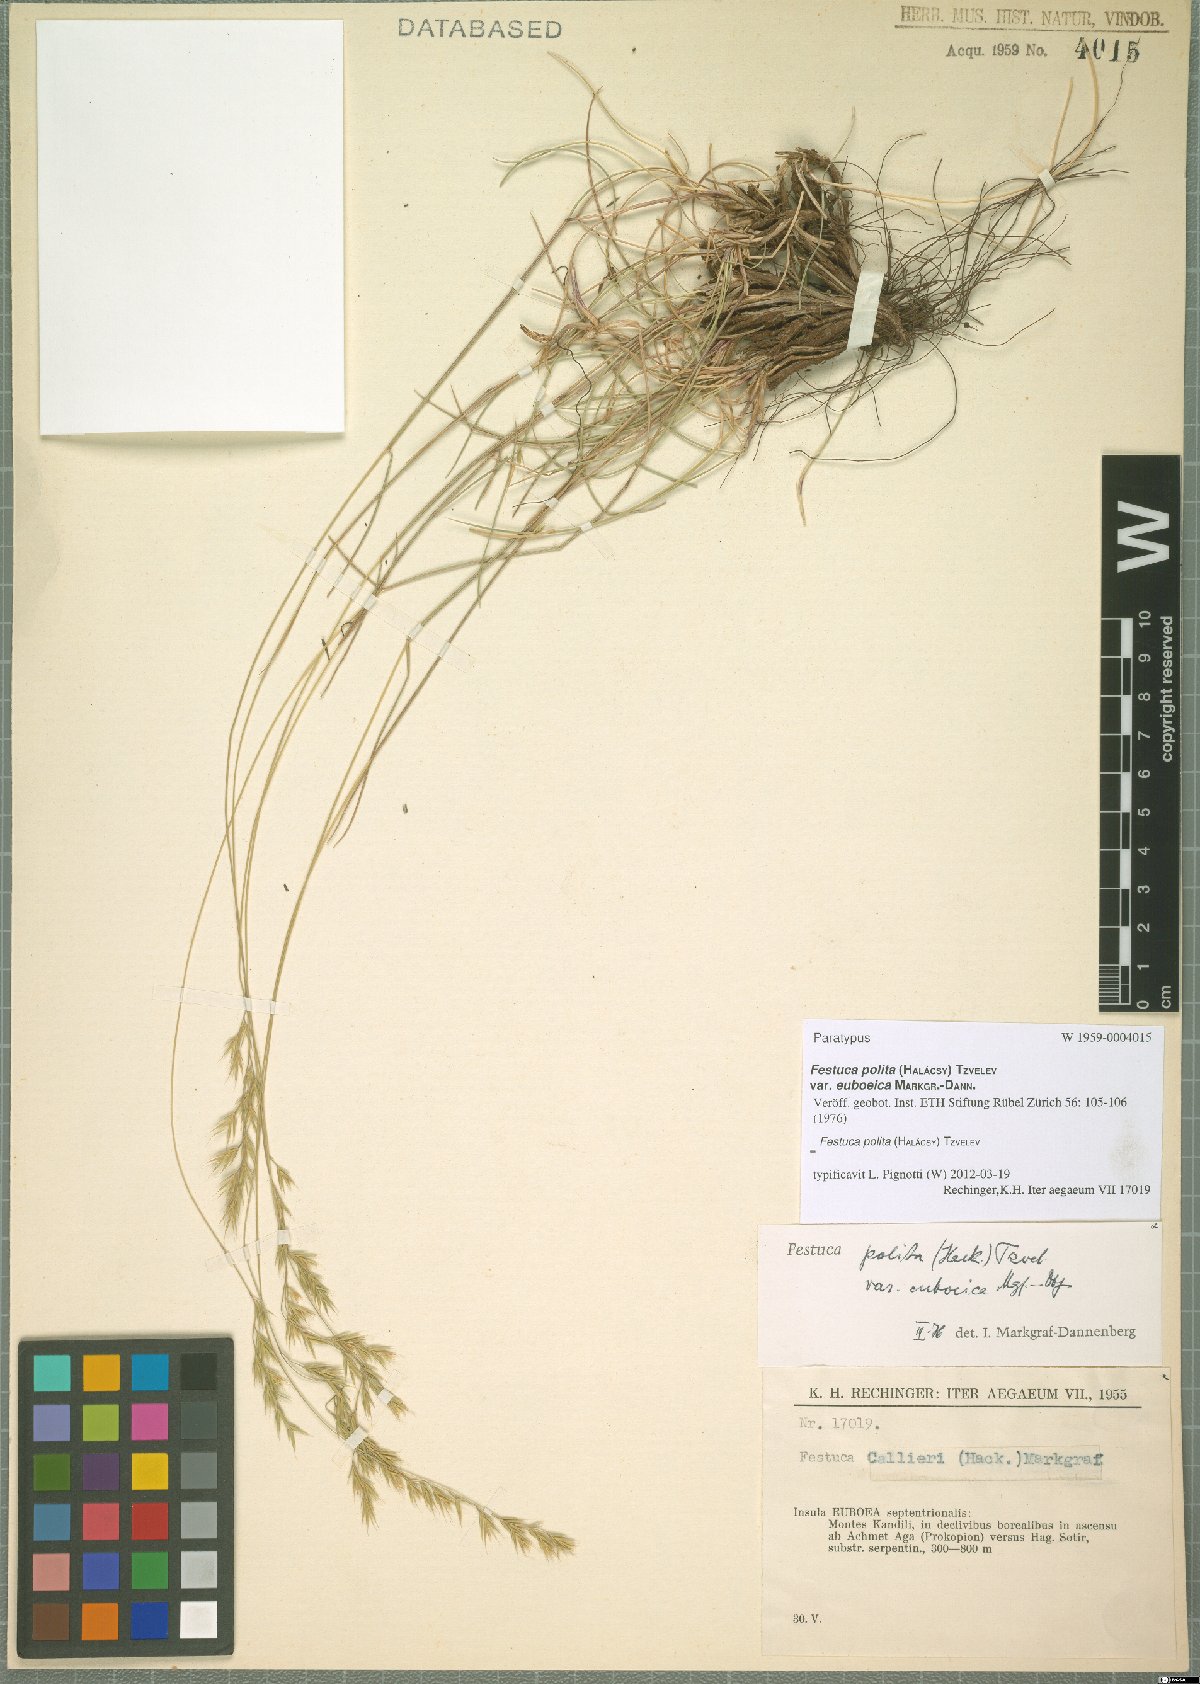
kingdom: Plantae
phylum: Tracheophyta
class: Liliopsida
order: Poales
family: Poaceae
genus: Festuca
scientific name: Festuca polita
